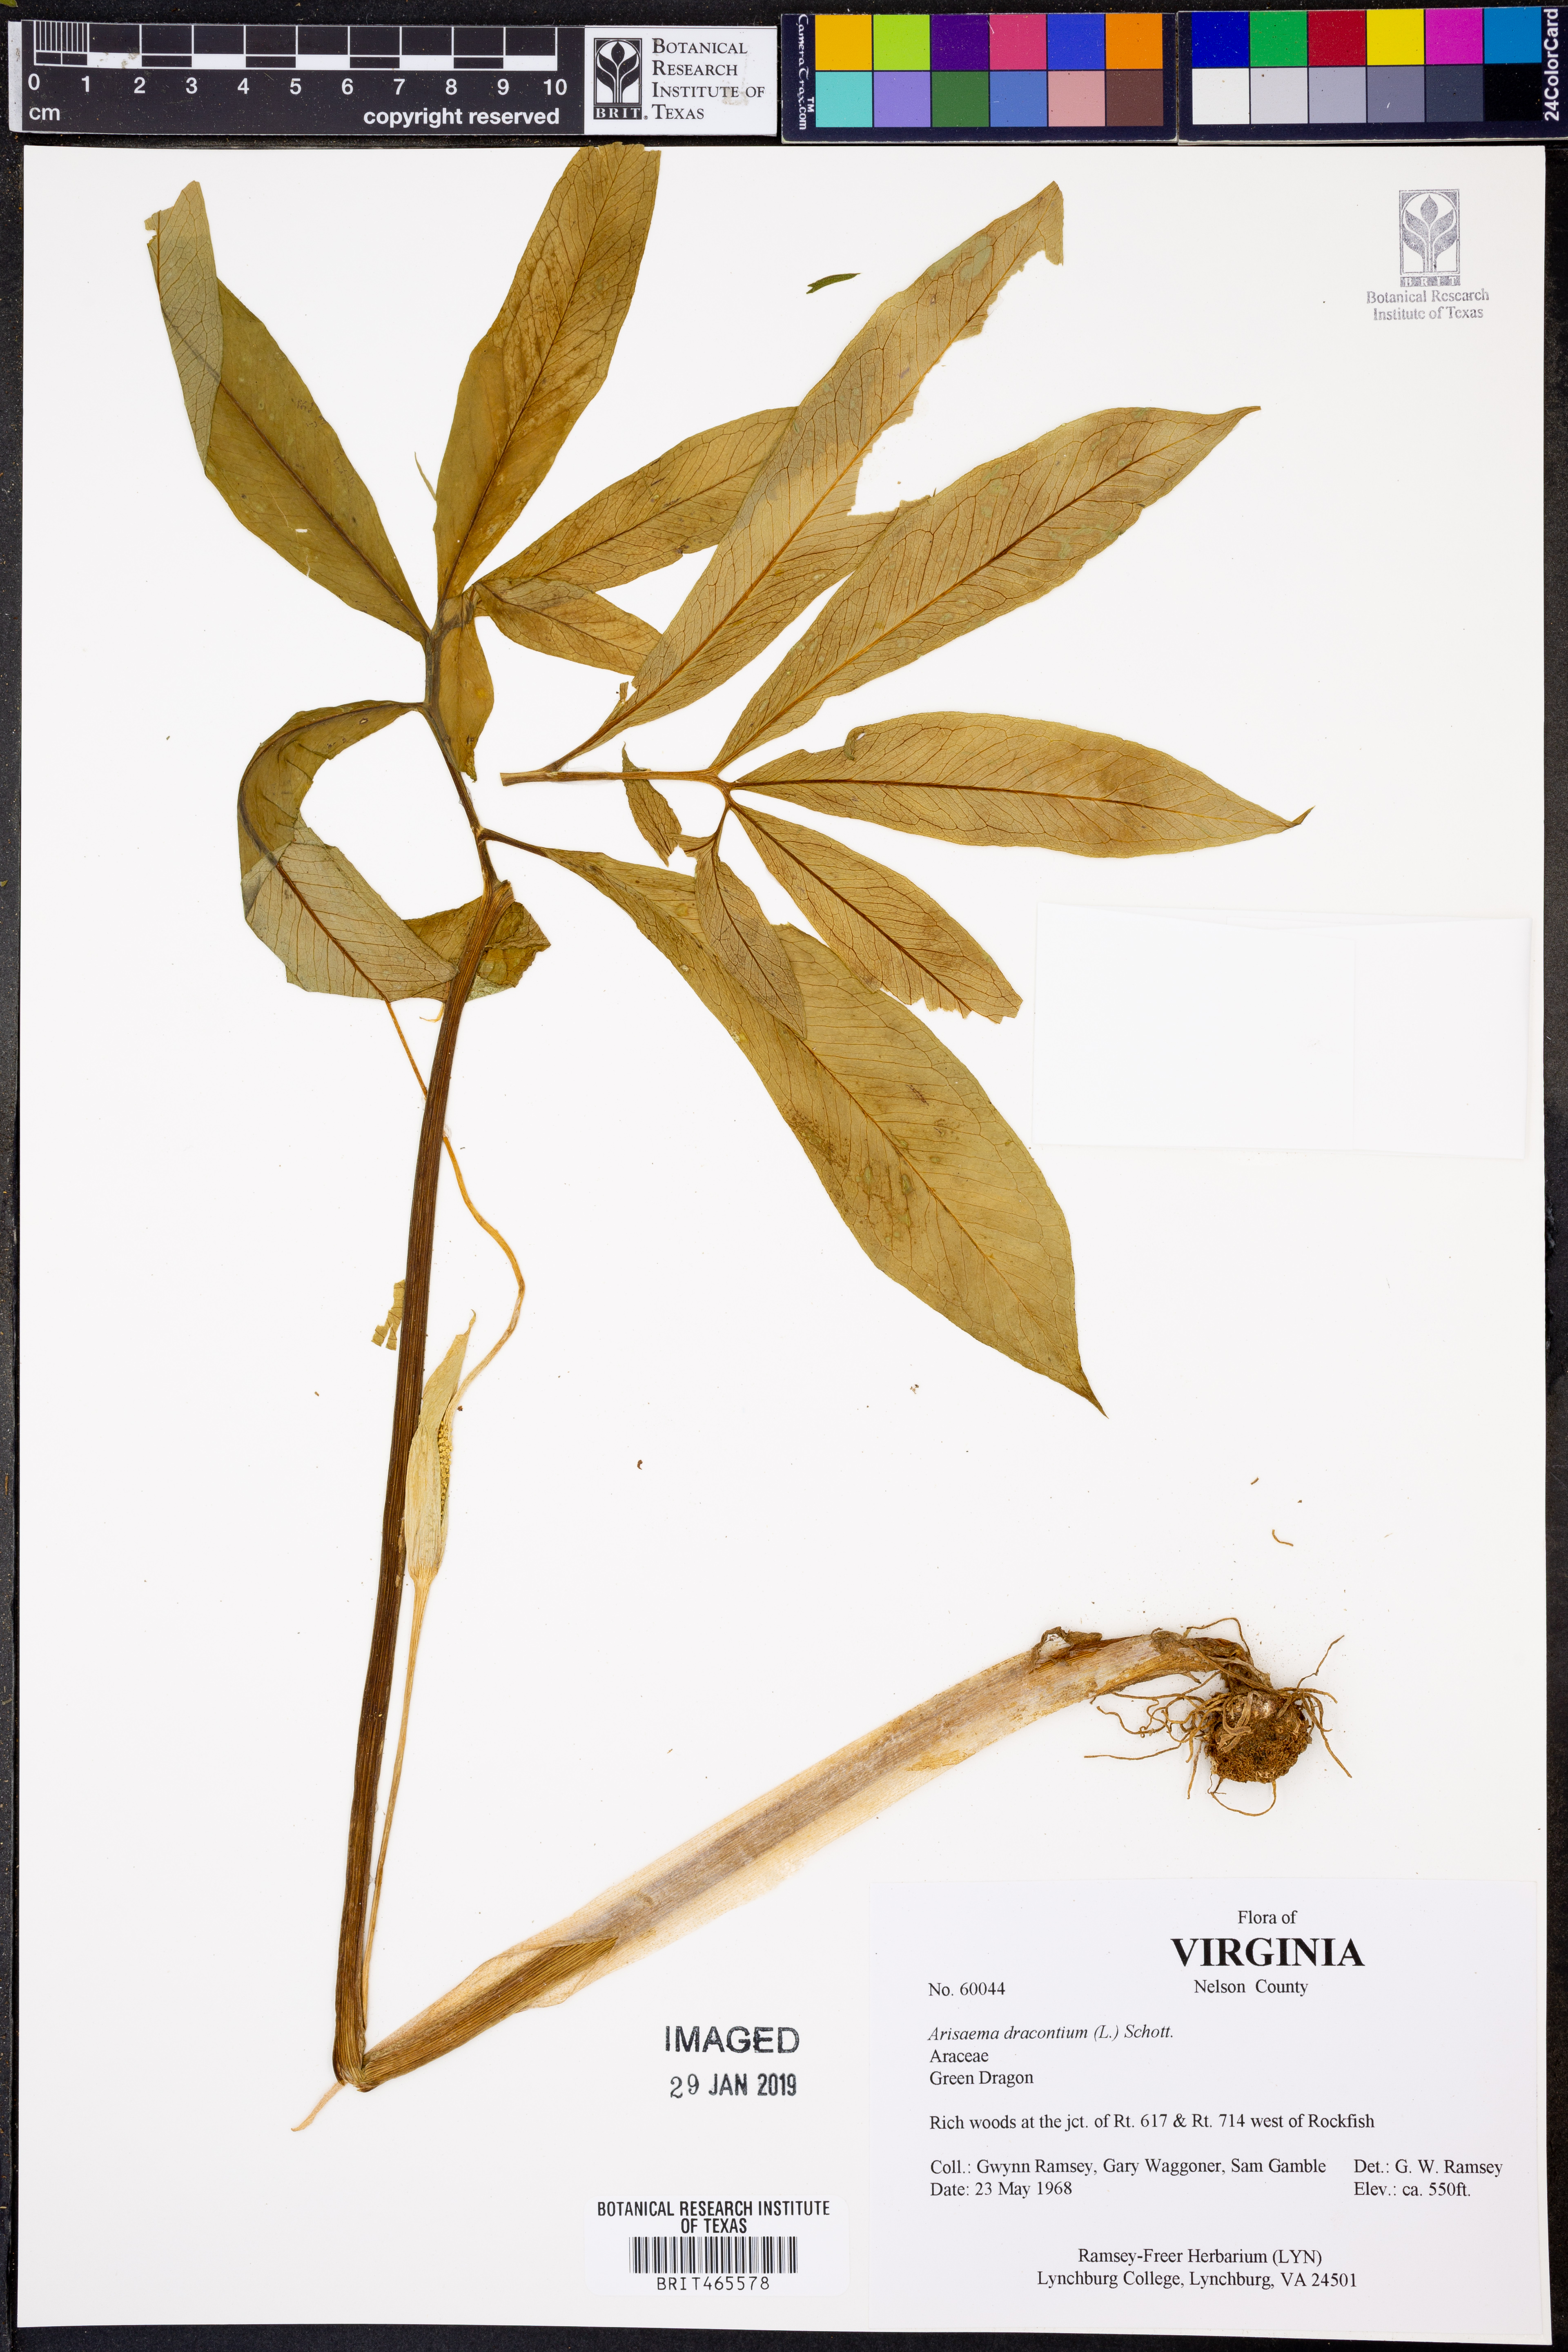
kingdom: Plantae
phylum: Tracheophyta
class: Liliopsida
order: Alismatales
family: Araceae
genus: Arisaema
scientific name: Arisaema dracontium
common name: Dragon-arum
